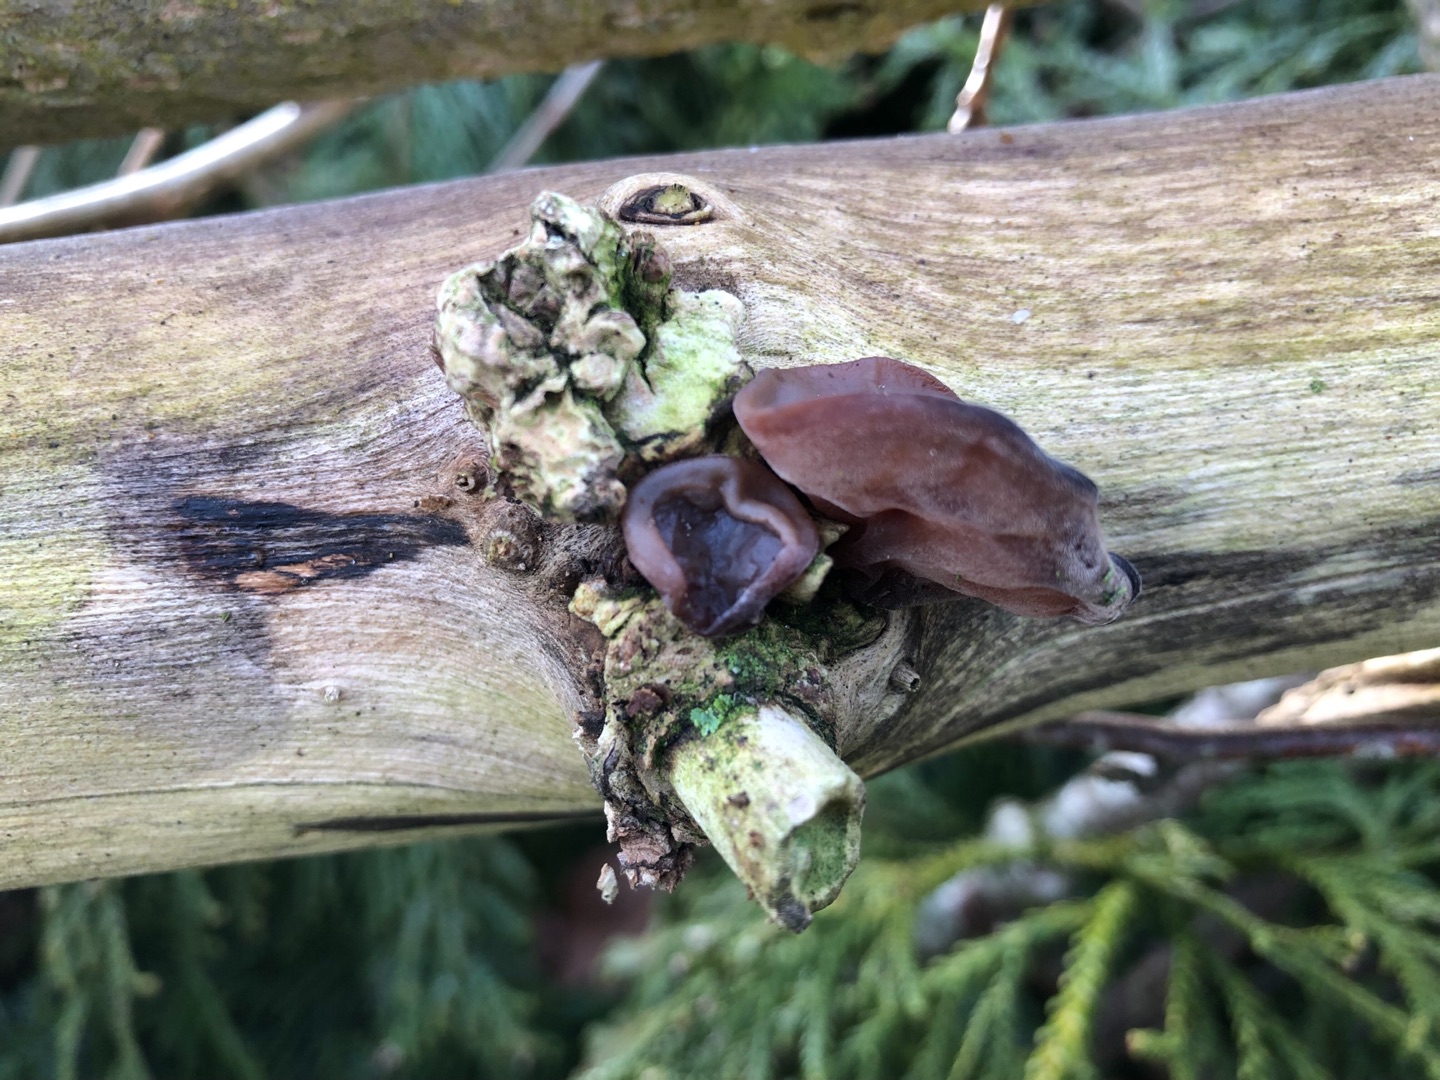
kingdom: Fungi
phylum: Basidiomycota
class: Agaricomycetes
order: Auriculariales
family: Auriculariaceae
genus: Auricularia
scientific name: Auricularia auricula-judae
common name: Almindelig judasøre
